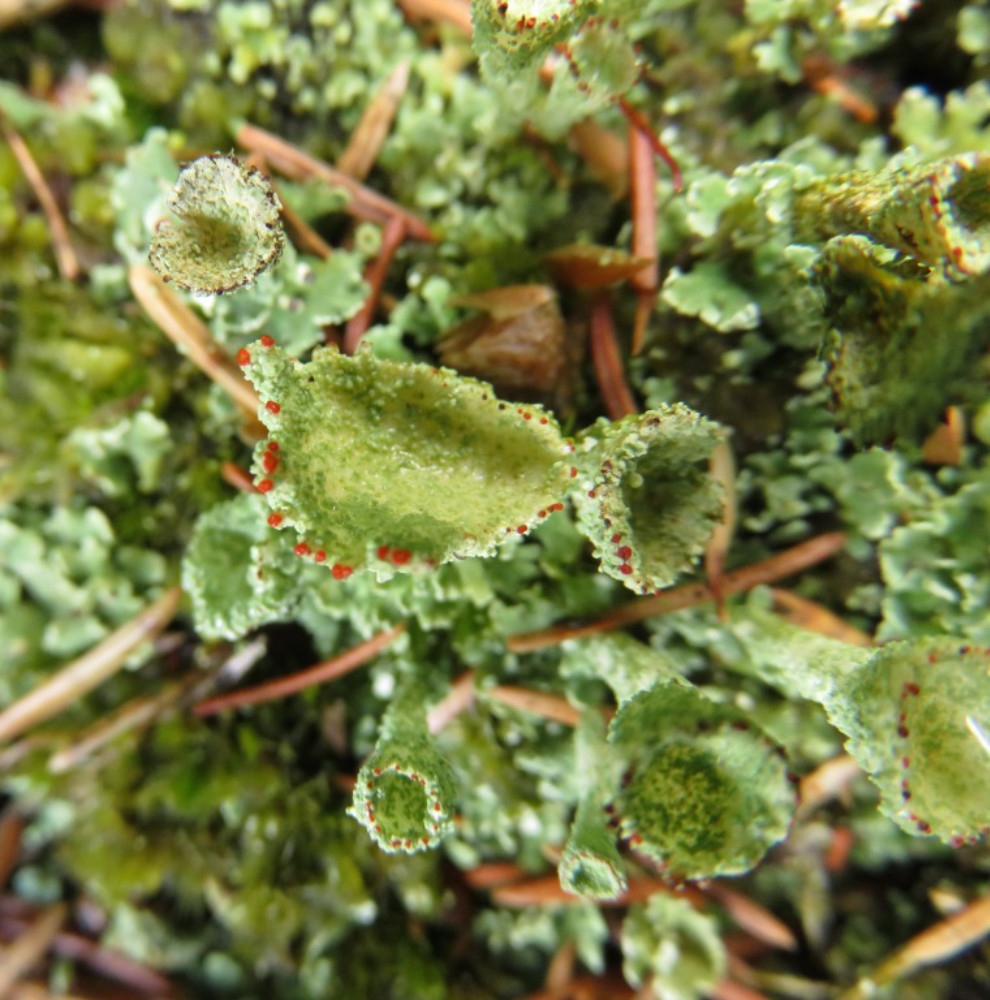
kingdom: Fungi
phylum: Ascomycota
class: Lecanoromycetes
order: Lecanorales
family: Cladoniaceae
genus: Cladonia
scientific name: Cladonia diversa
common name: rød bægerlav
